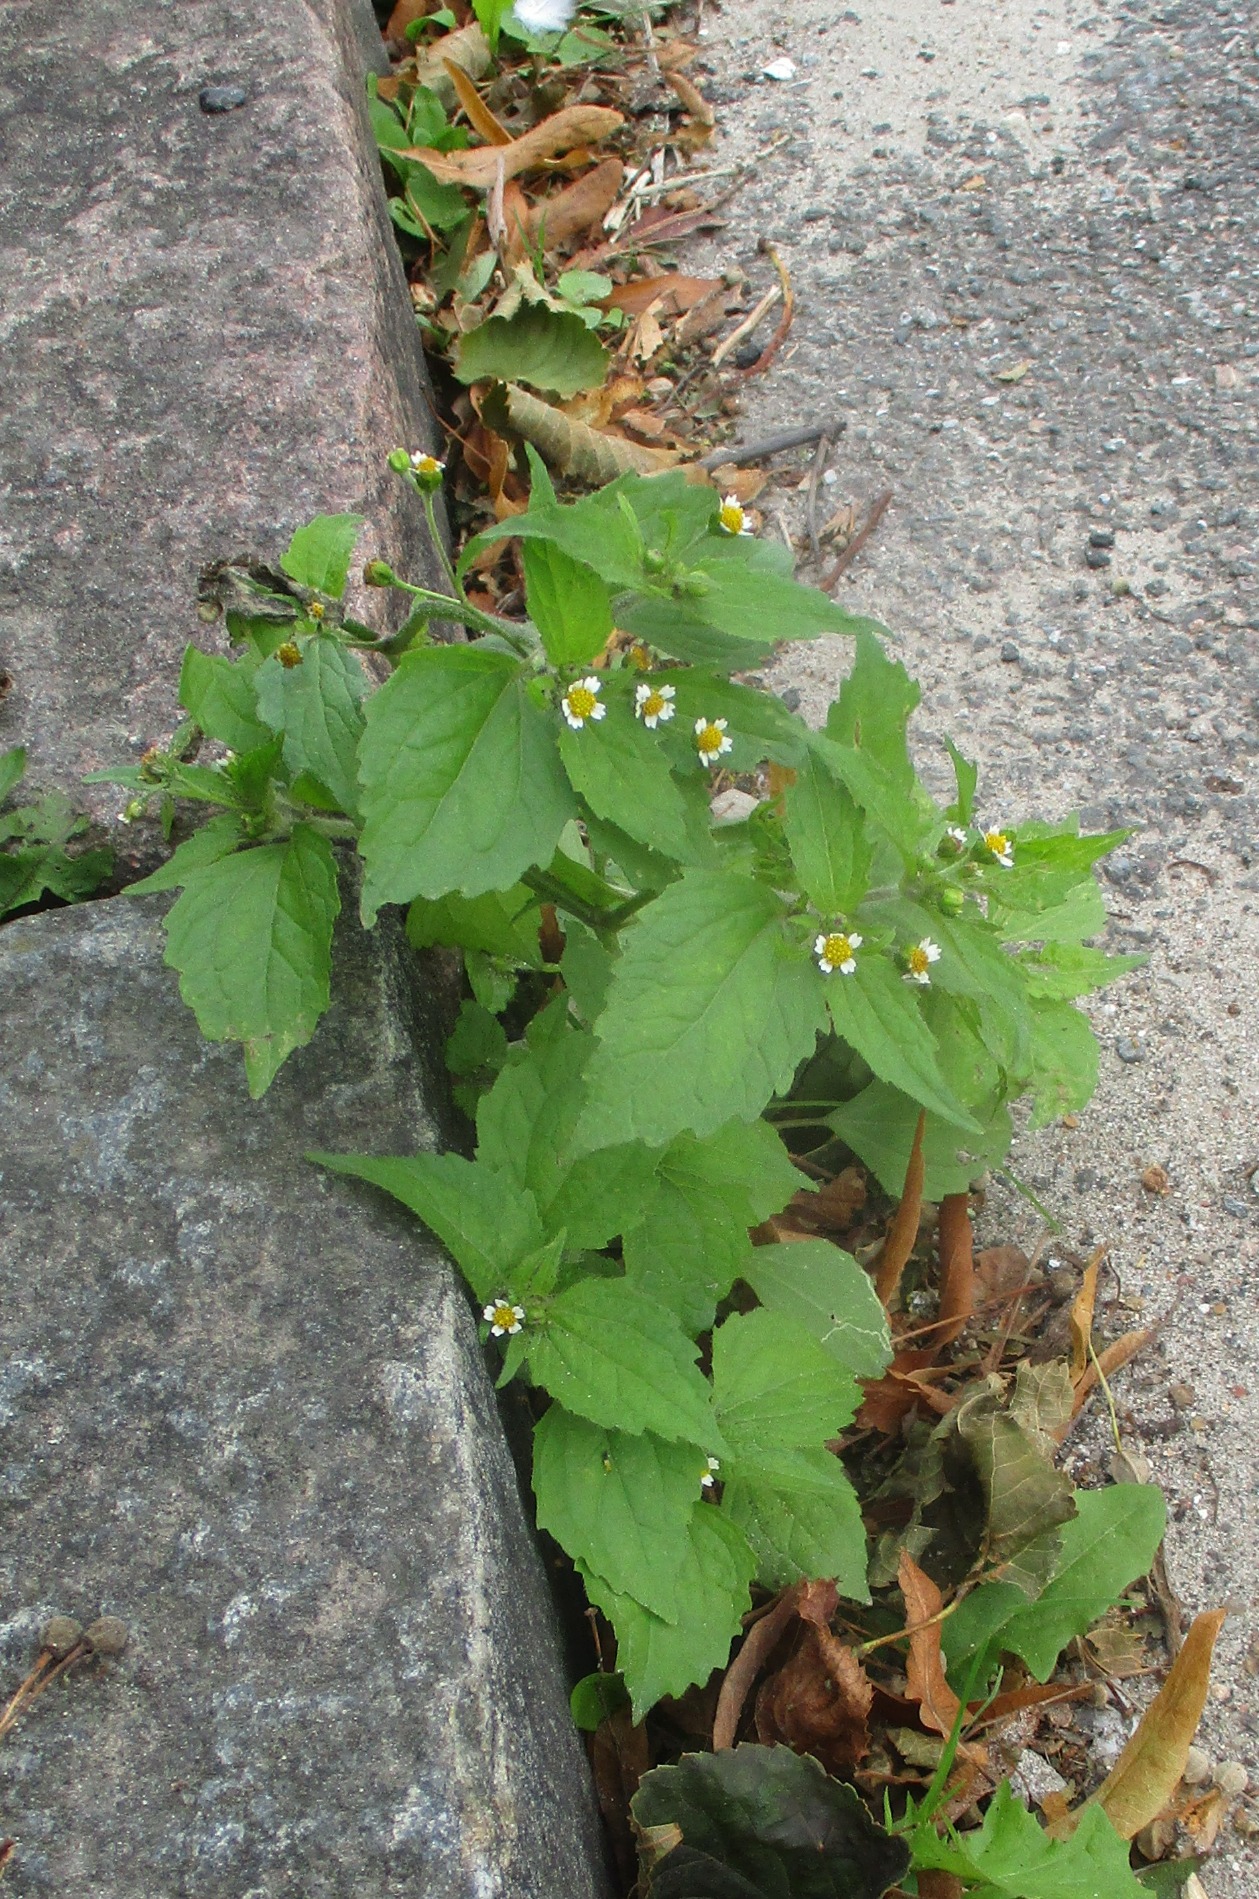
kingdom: Plantae
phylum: Tracheophyta
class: Magnoliopsida
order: Asterales
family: Asteraceae
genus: Galinsoga
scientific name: Galinsoga quadriradiata
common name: Kirtel-kortstråle
